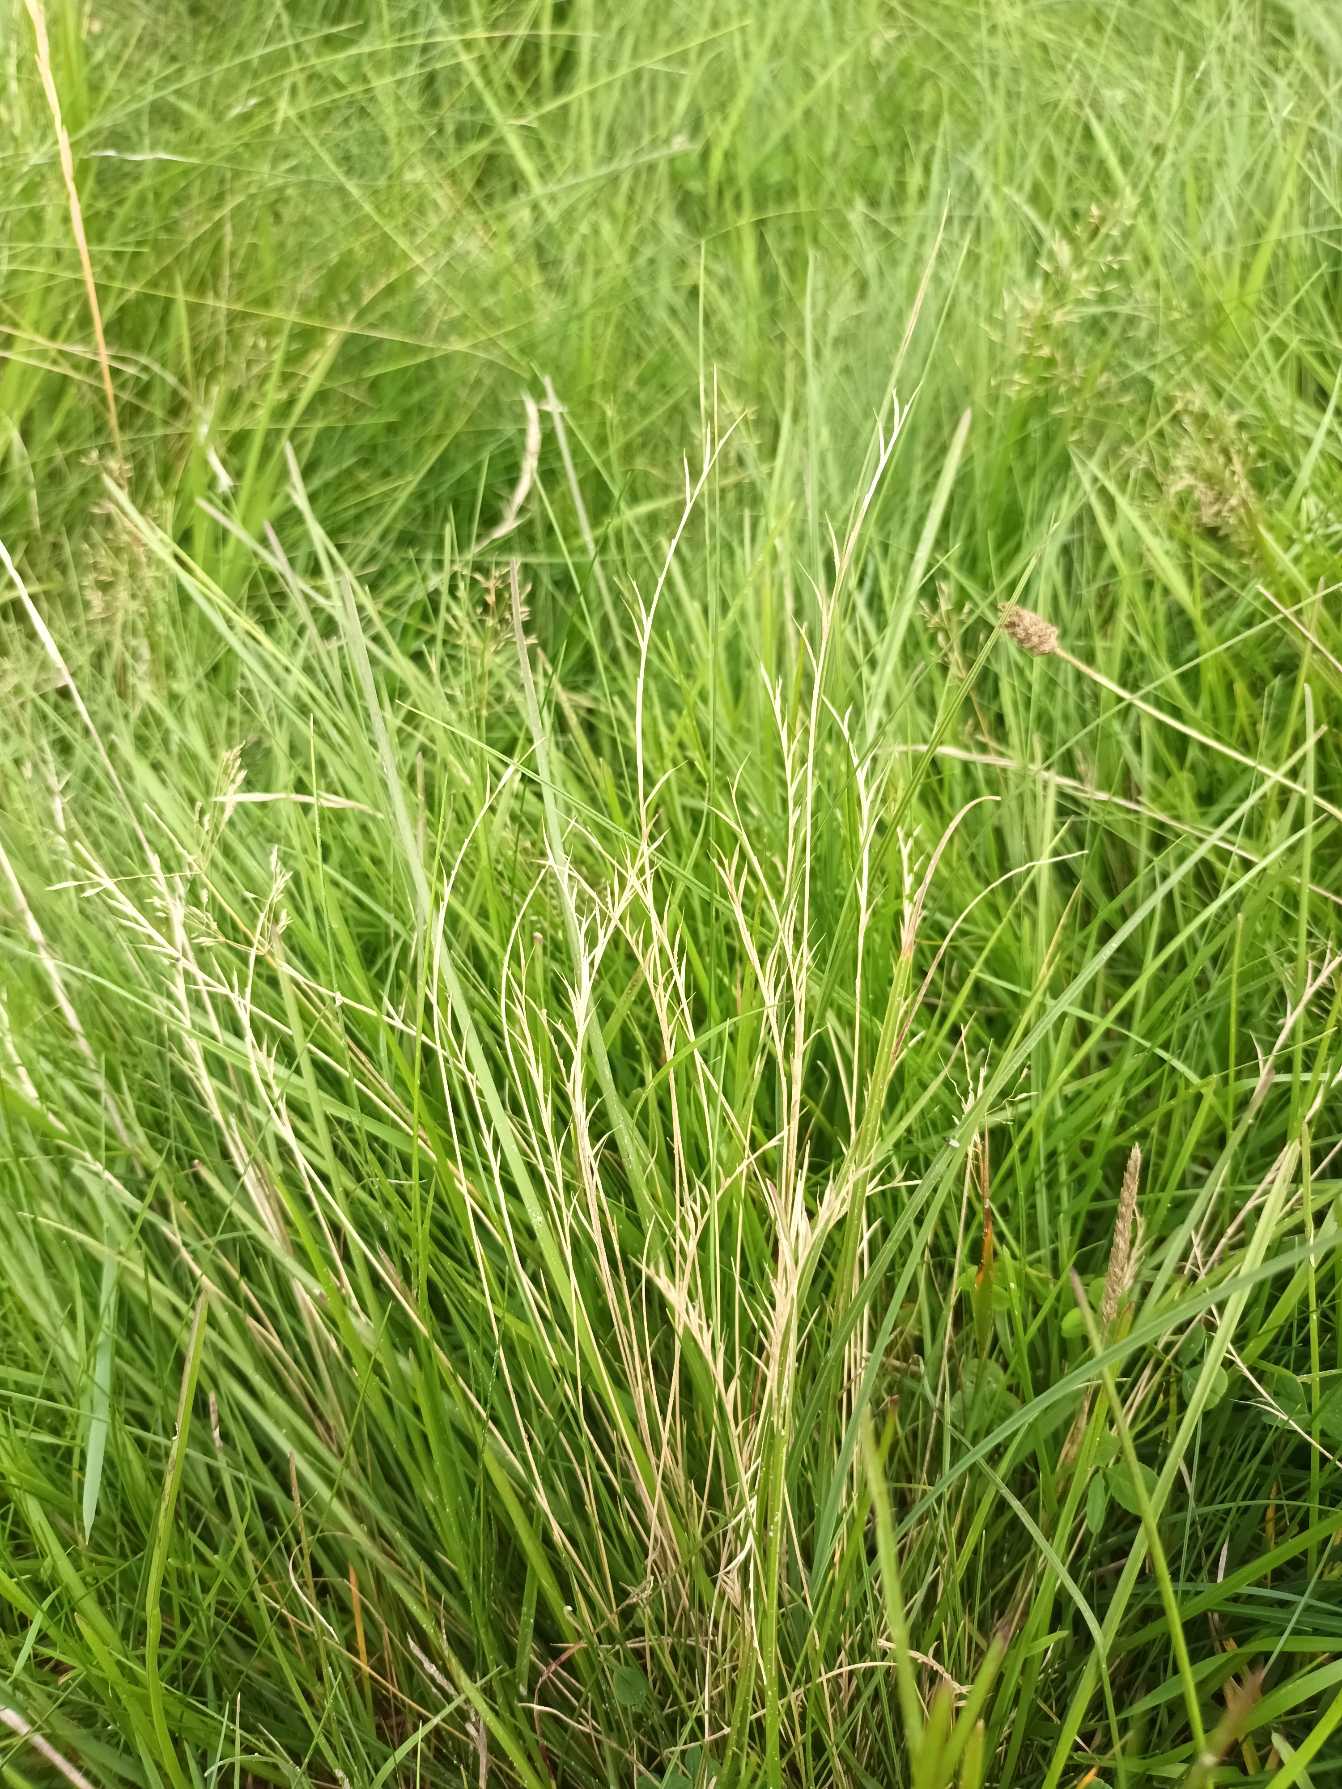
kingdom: Plantae
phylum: Tracheophyta
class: Liliopsida
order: Poales
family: Poaceae
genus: Nardus
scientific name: Nardus stricta
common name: Katteskæg
